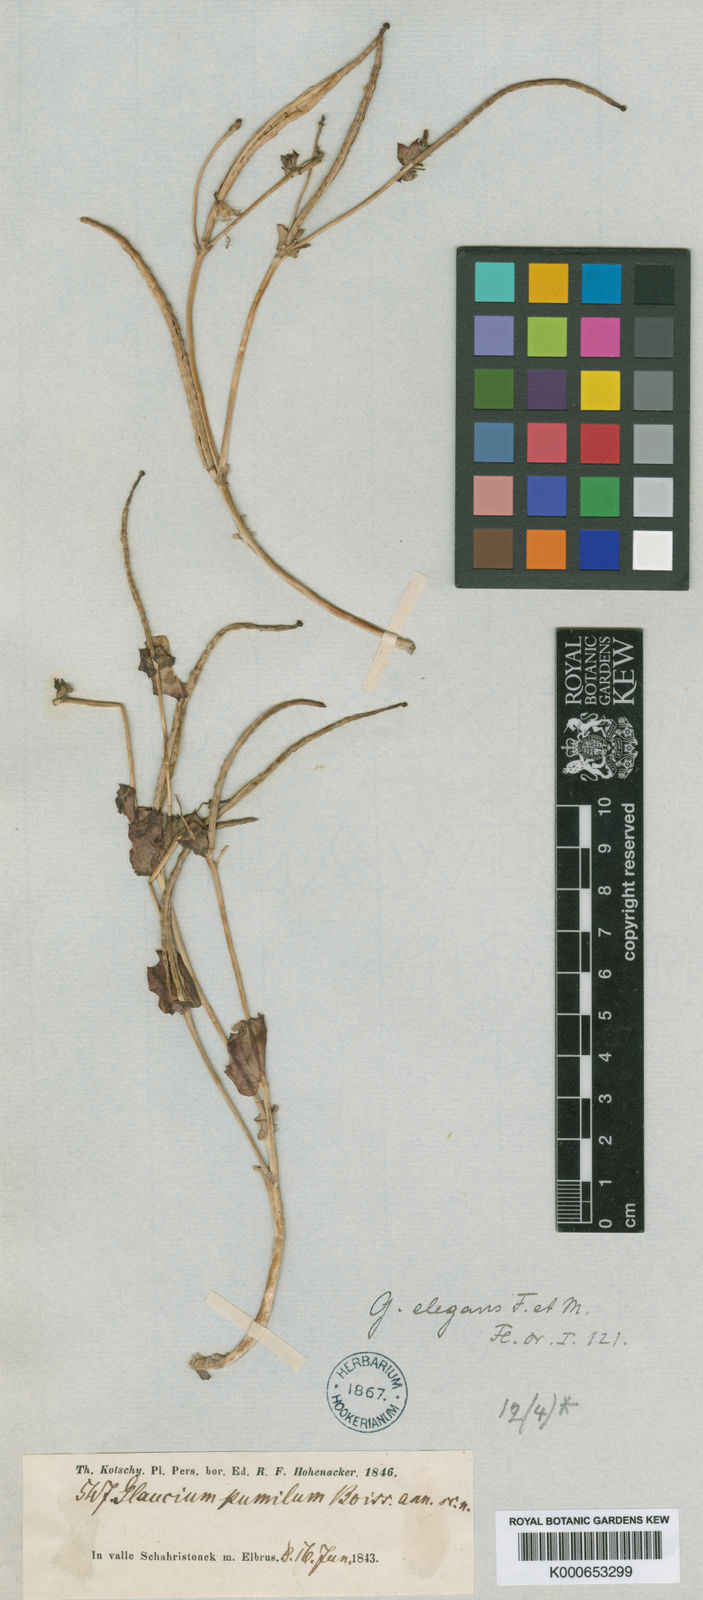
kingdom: Plantae
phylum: Tracheophyta
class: Magnoliopsida
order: Ranunculales
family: Papaveraceae
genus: Glaucium
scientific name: Glaucium elegans
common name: Annual horned-poppy
